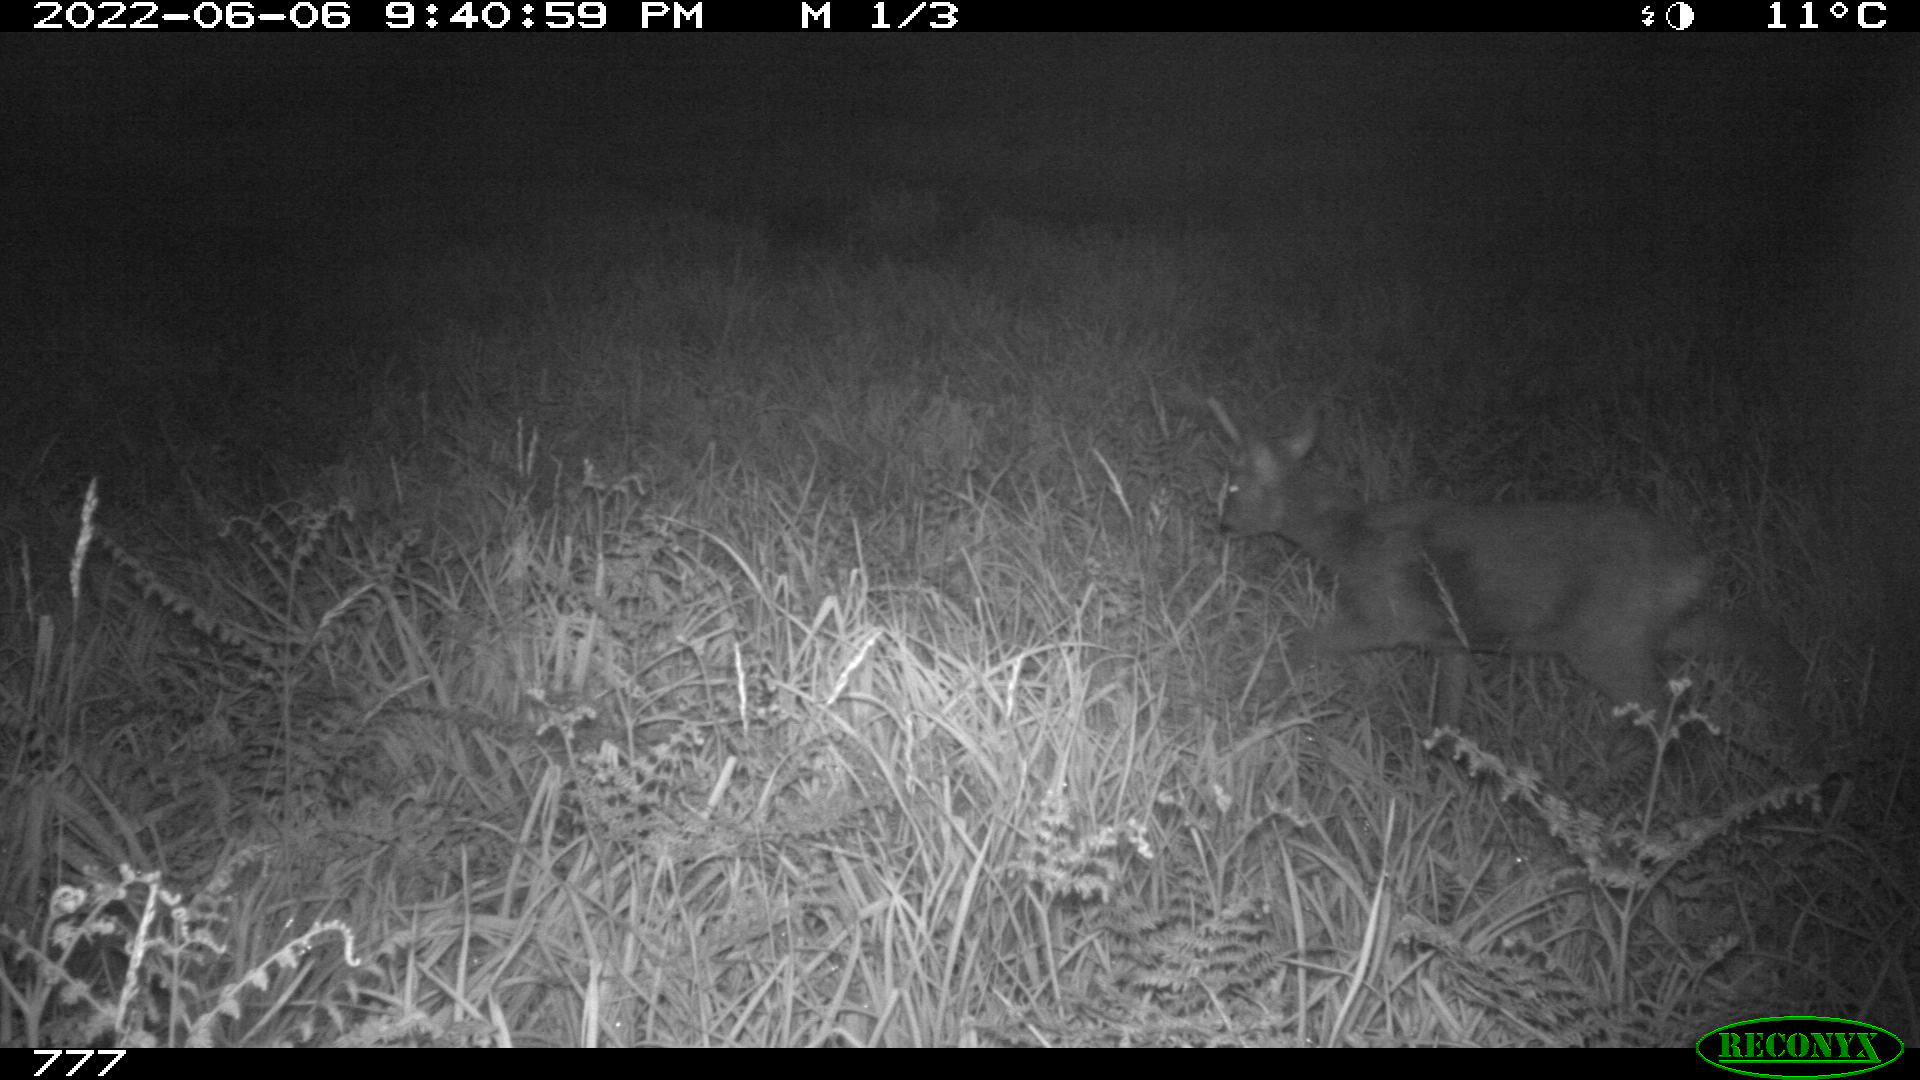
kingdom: Animalia
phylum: Chordata
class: Mammalia
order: Artiodactyla
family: Cervidae
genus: Capreolus
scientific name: Capreolus capreolus
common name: Western roe deer
